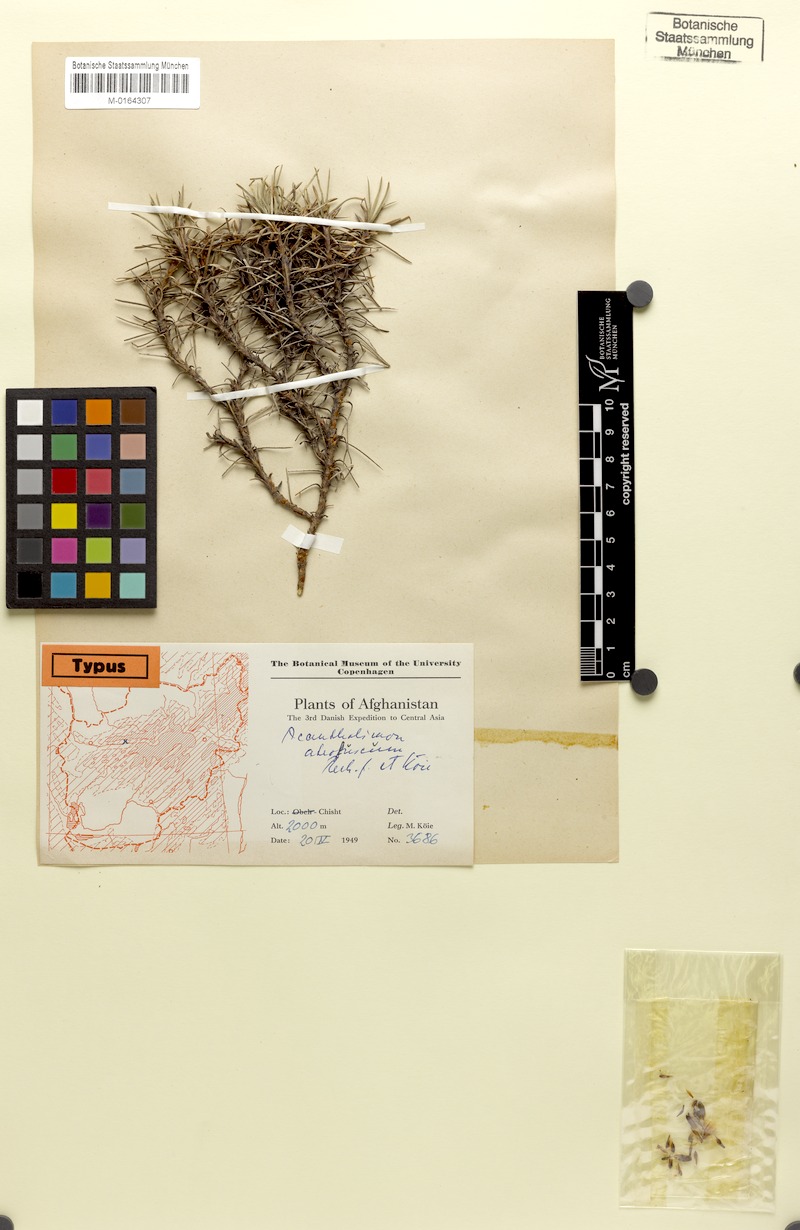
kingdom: Plantae
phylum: Tracheophyta
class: Magnoliopsida
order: Caryophyllales
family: Plumbaginaceae
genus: Acantholimon
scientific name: Acantholimon atrofuscum
